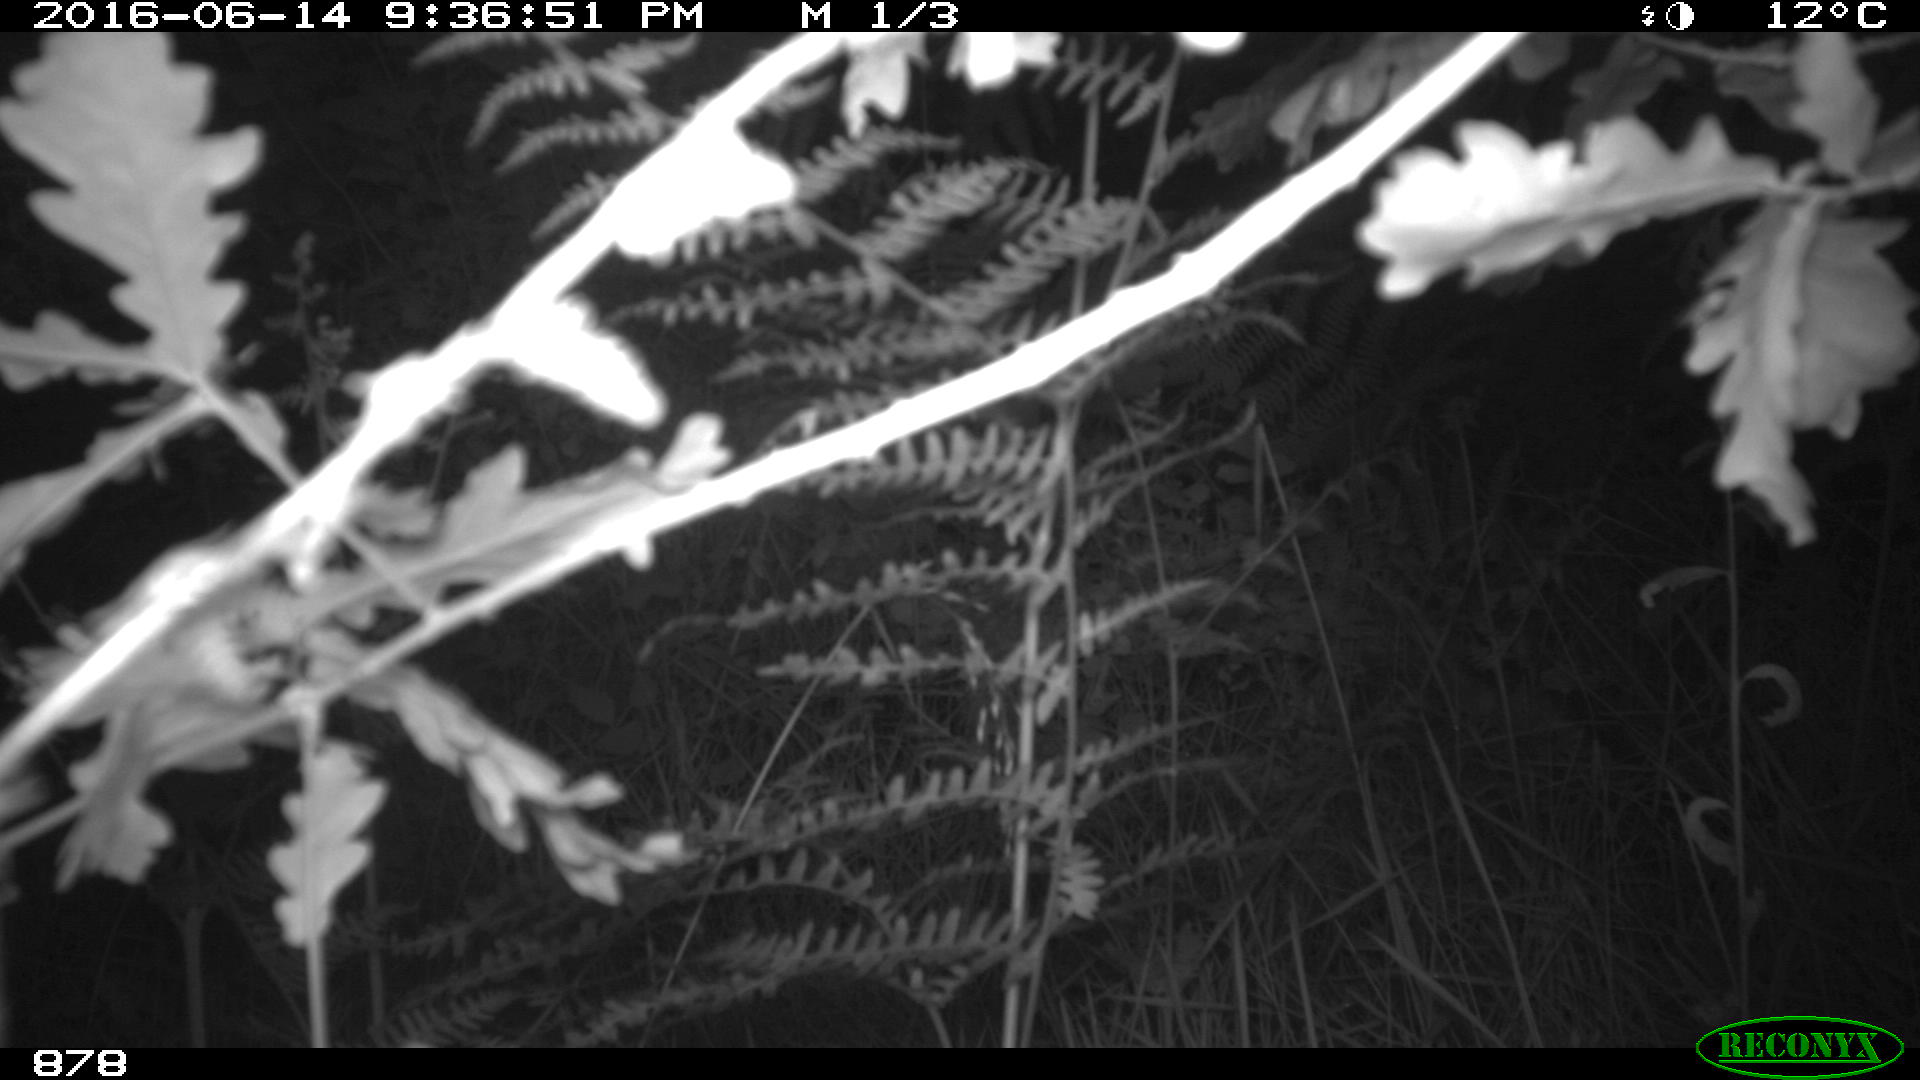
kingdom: Animalia
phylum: Chordata
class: Mammalia
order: Artiodactyla
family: Suidae
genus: Sus
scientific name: Sus scrofa
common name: Wild boar
